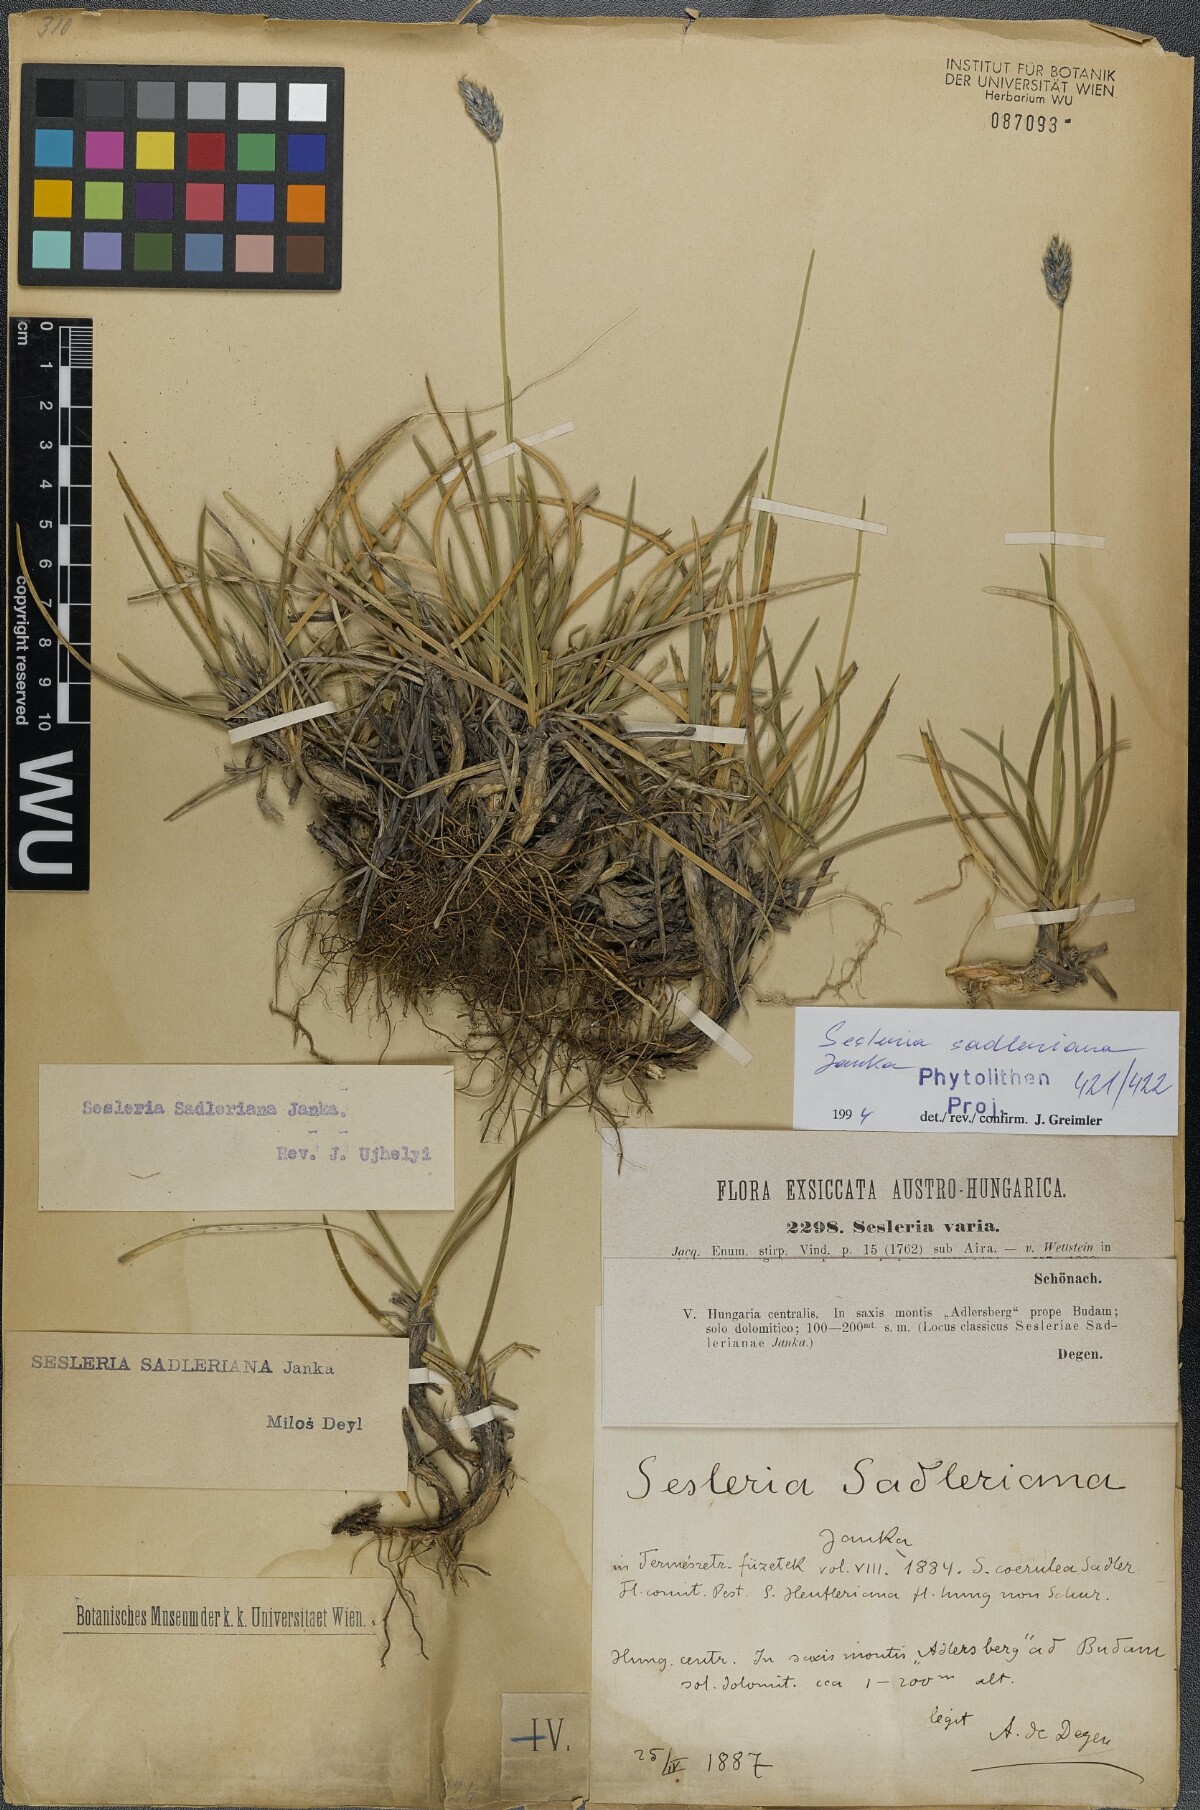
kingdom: Plantae
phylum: Tracheophyta
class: Liliopsida
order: Poales
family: Poaceae
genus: Sesleria
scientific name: Sesleria sadleriana
